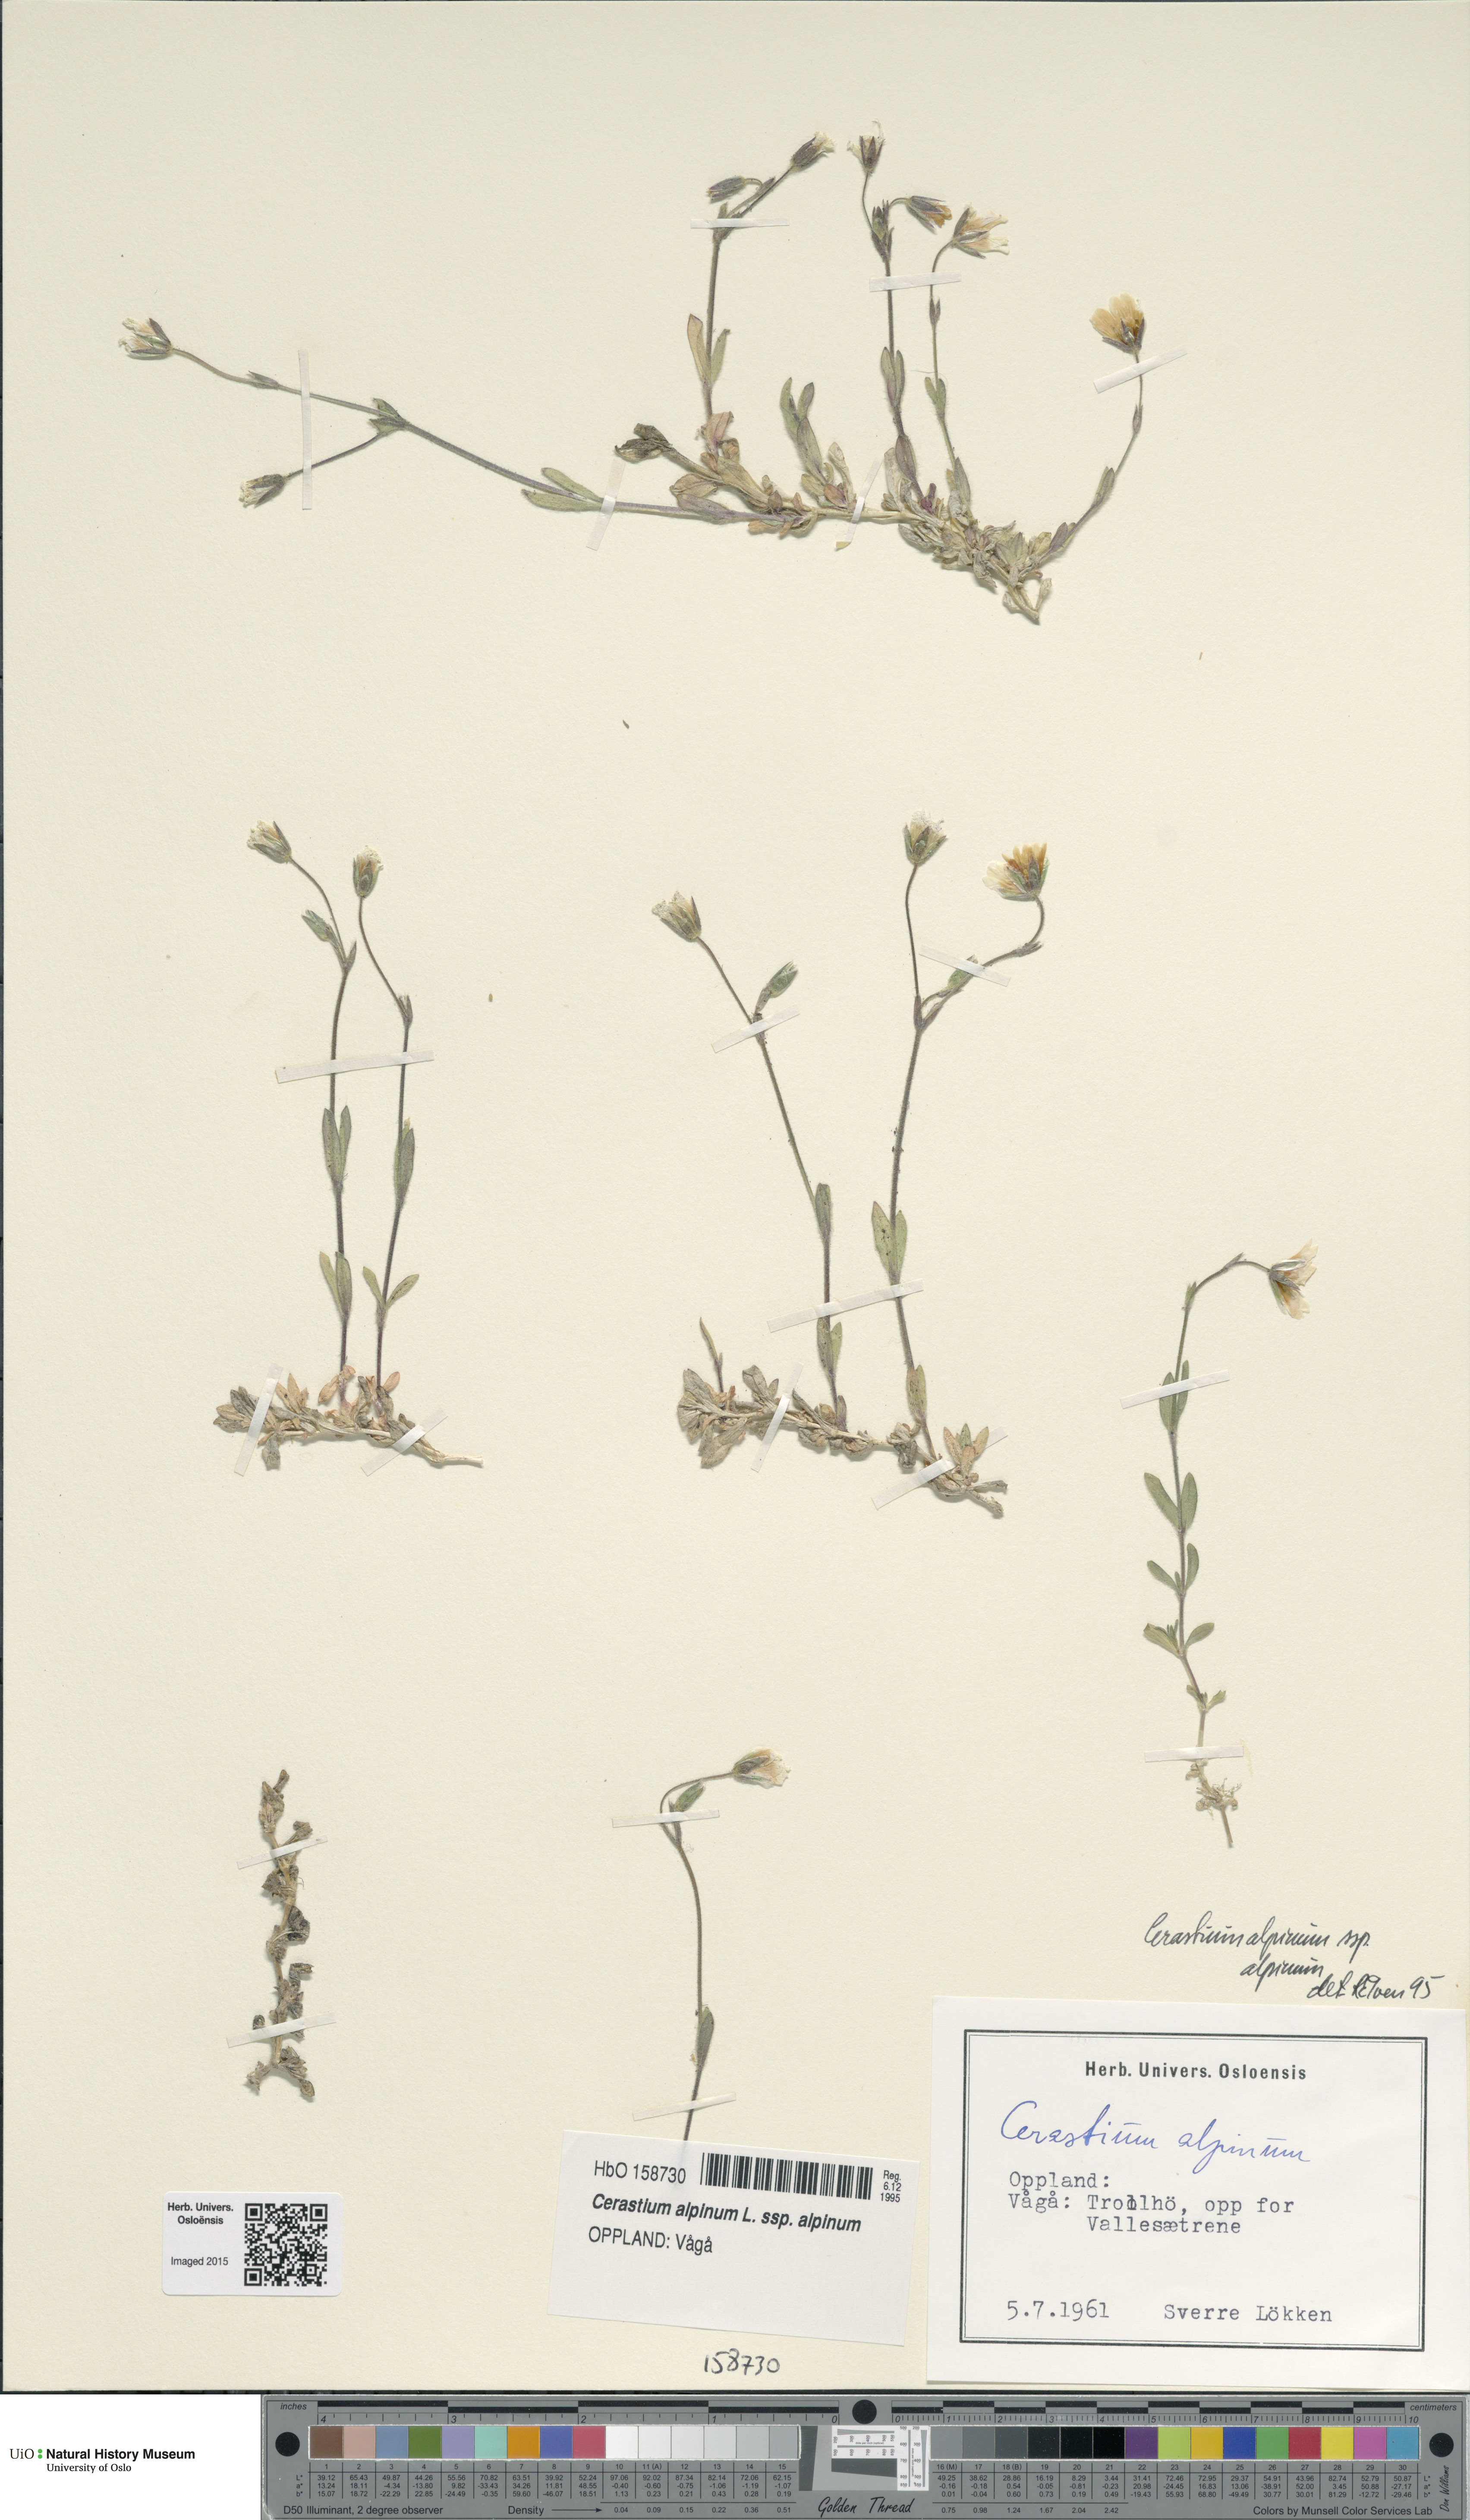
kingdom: Plantae
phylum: Tracheophyta
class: Magnoliopsida
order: Caryophyllales
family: Caryophyllaceae
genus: Cerastium
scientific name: Cerastium alpinum
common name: Alpine mouse-ear
